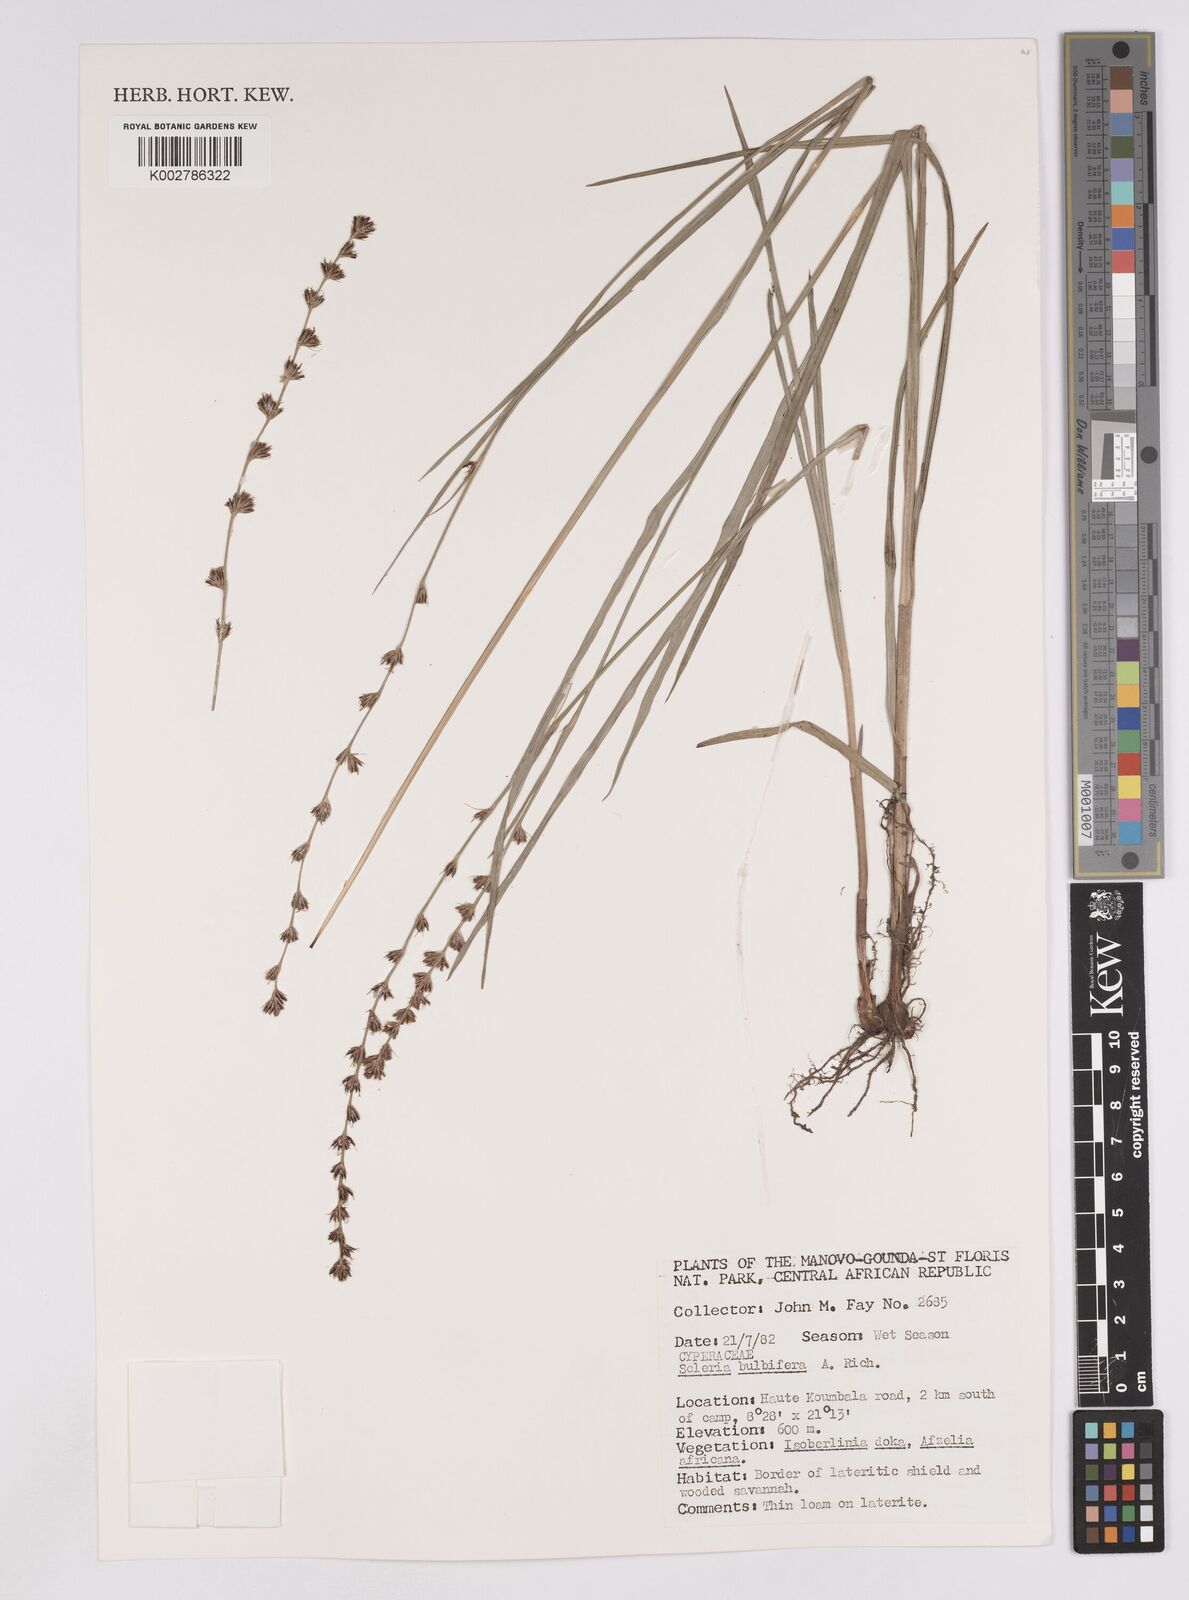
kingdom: Plantae
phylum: Tracheophyta
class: Liliopsida
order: Poales
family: Cyperaceae
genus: Scleria
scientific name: Scleria bulbifera
